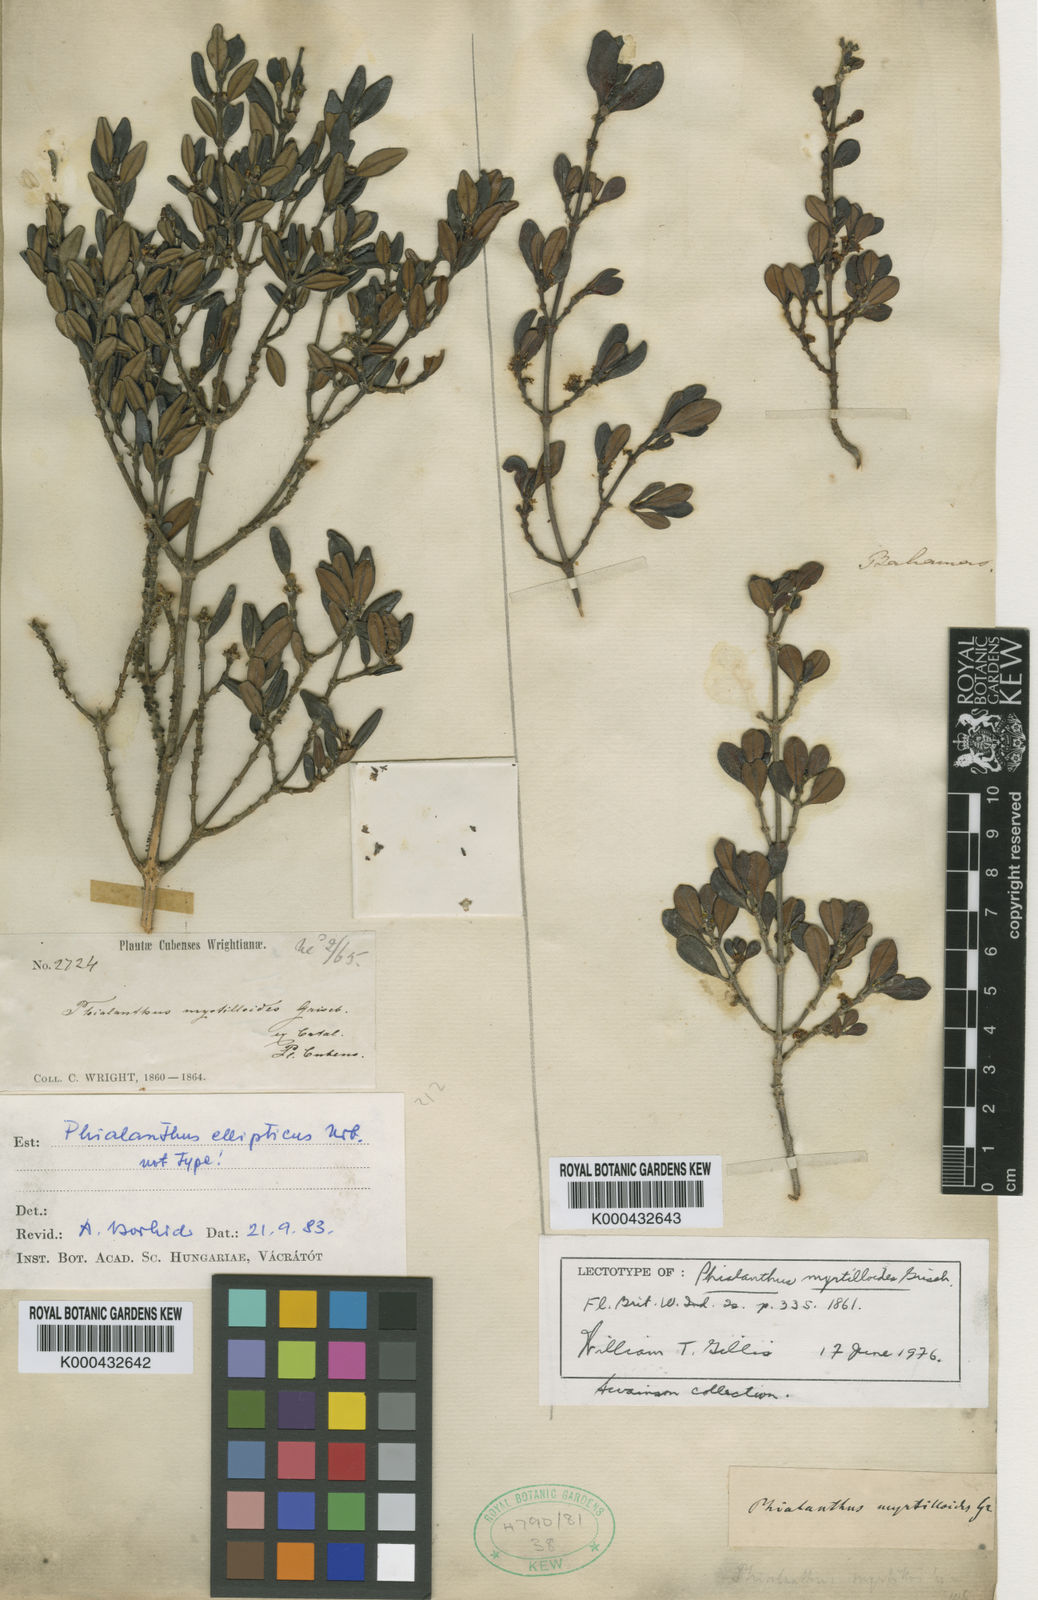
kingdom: Plantae
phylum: Tracheophyta
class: Magnoliopsida
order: Gentianales
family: Rubiaceae
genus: Phialanthus
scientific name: Phialanthus myrtilloides
